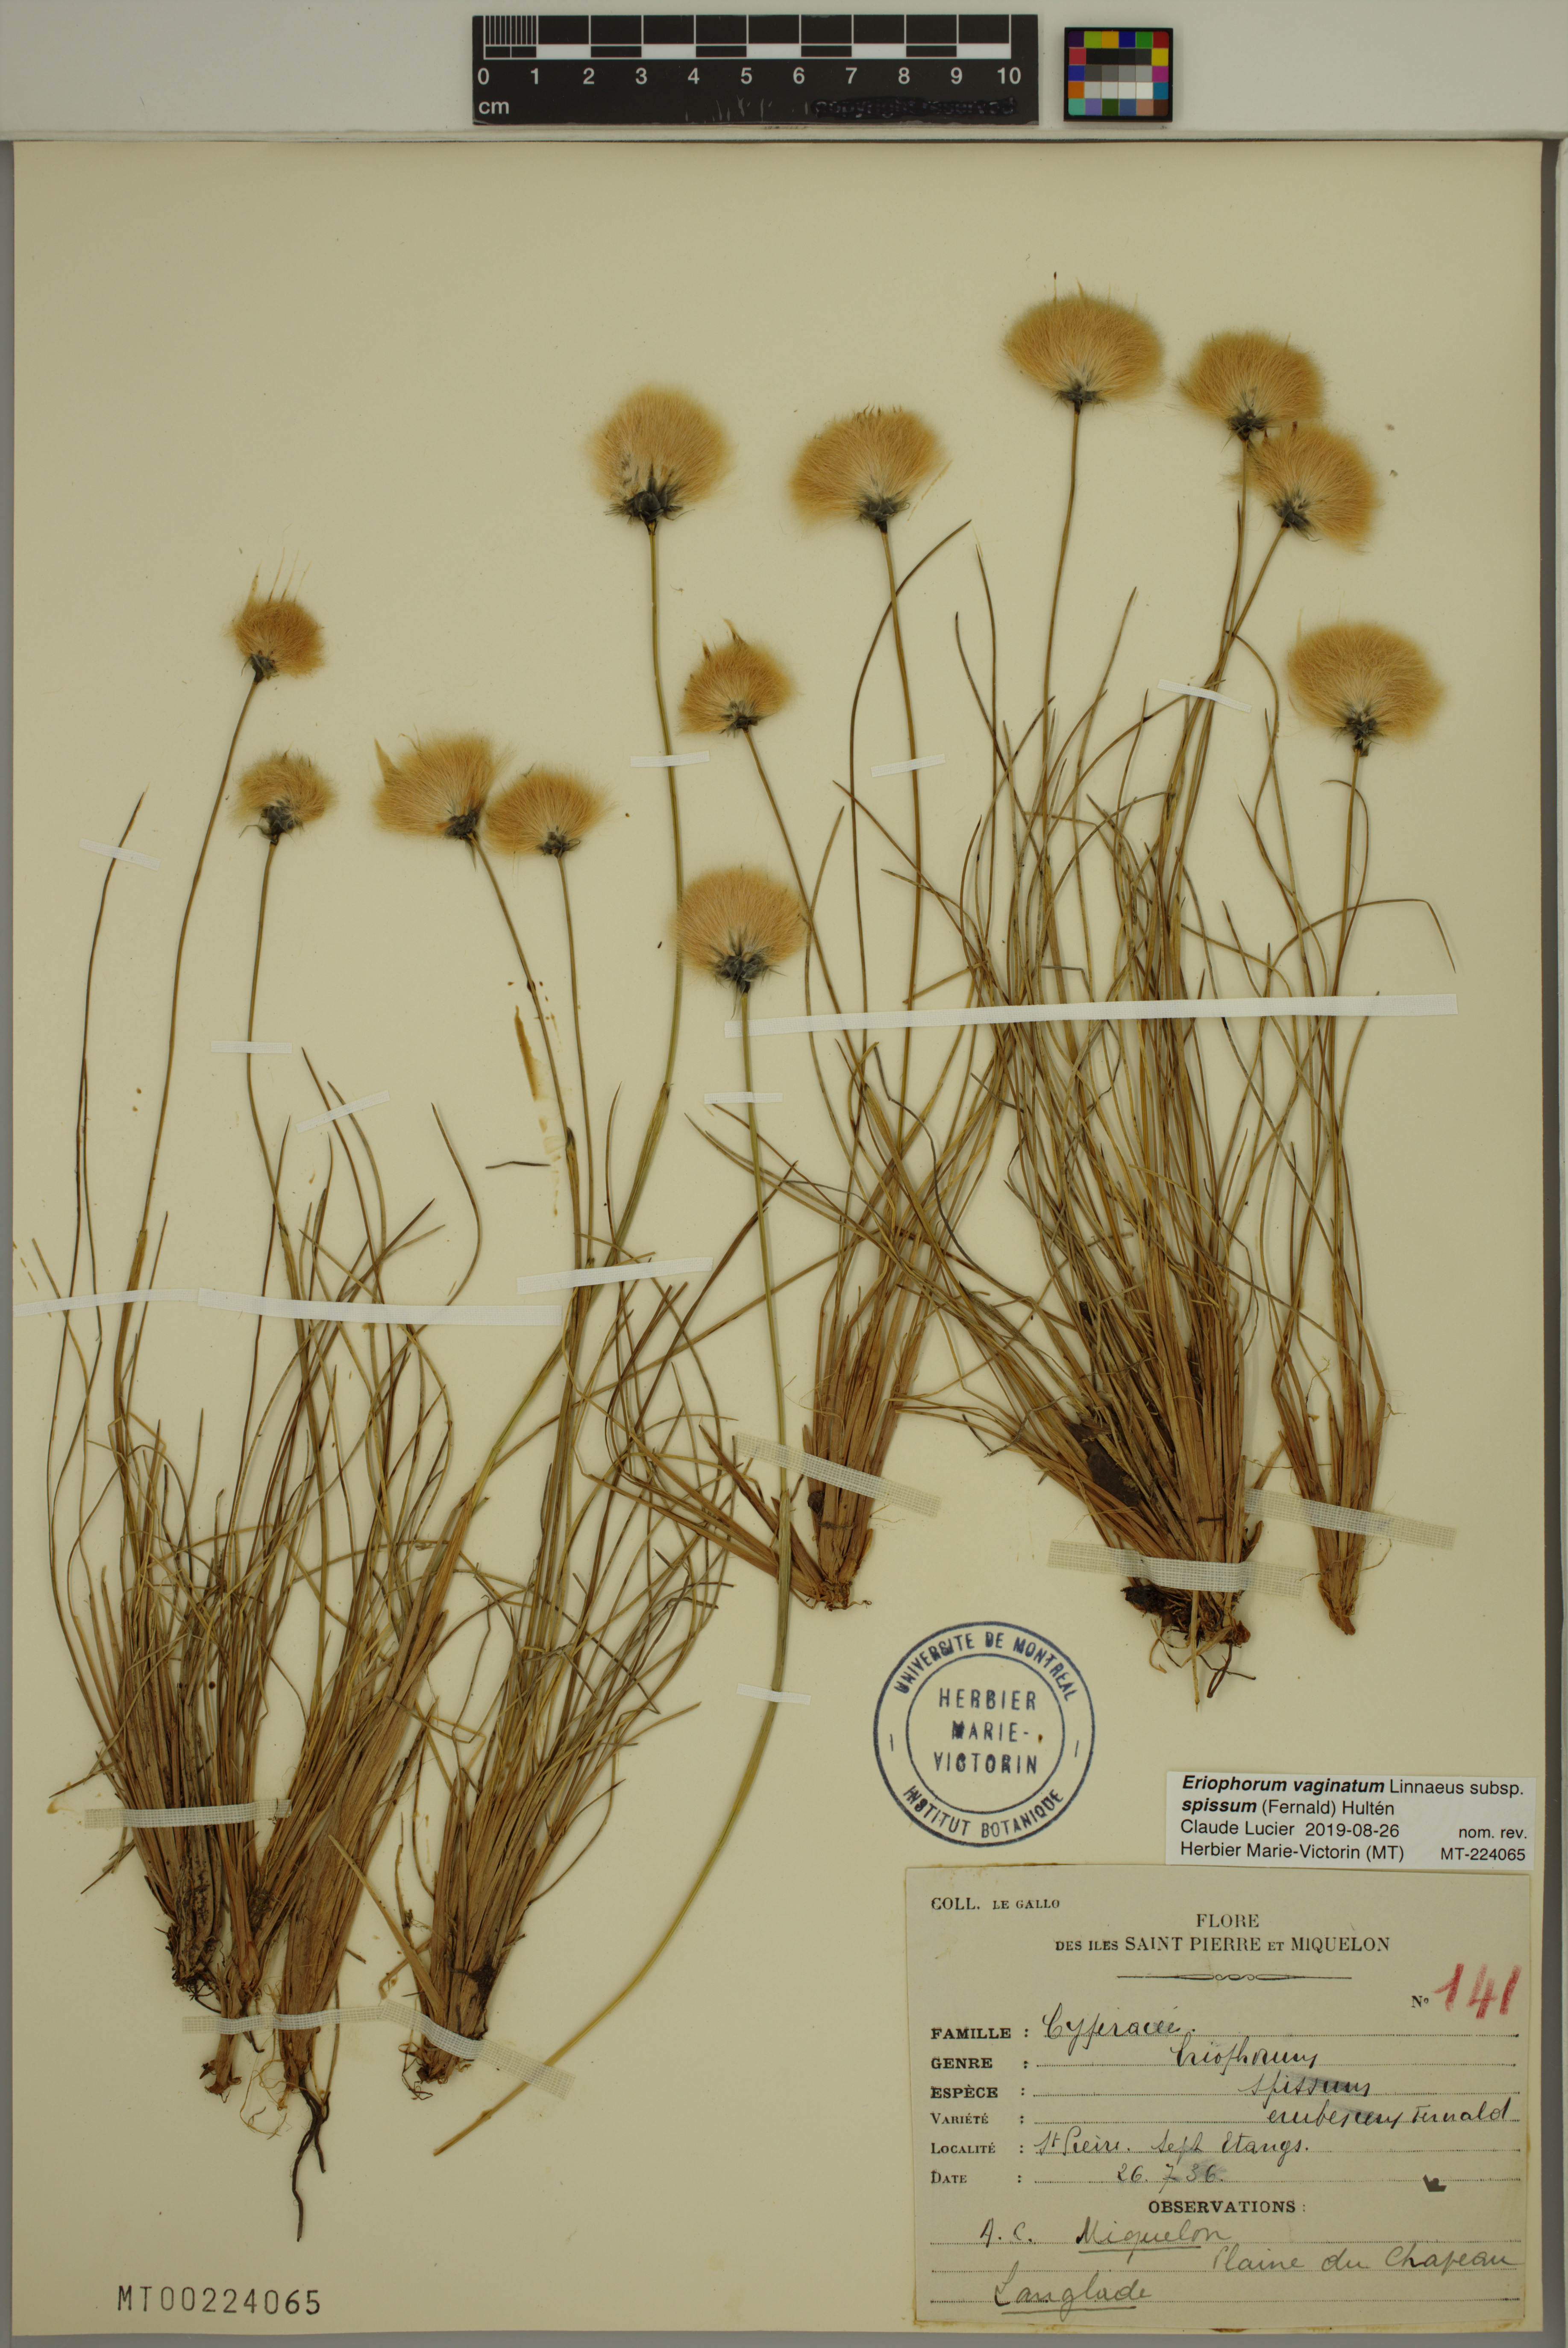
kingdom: Plantae
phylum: Tracheophyta
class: Liliopsida
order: Poales
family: Cyperaceae
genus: Eriophorum
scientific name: Eriophorum vaginatum
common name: Hare's-tail cottongrass
